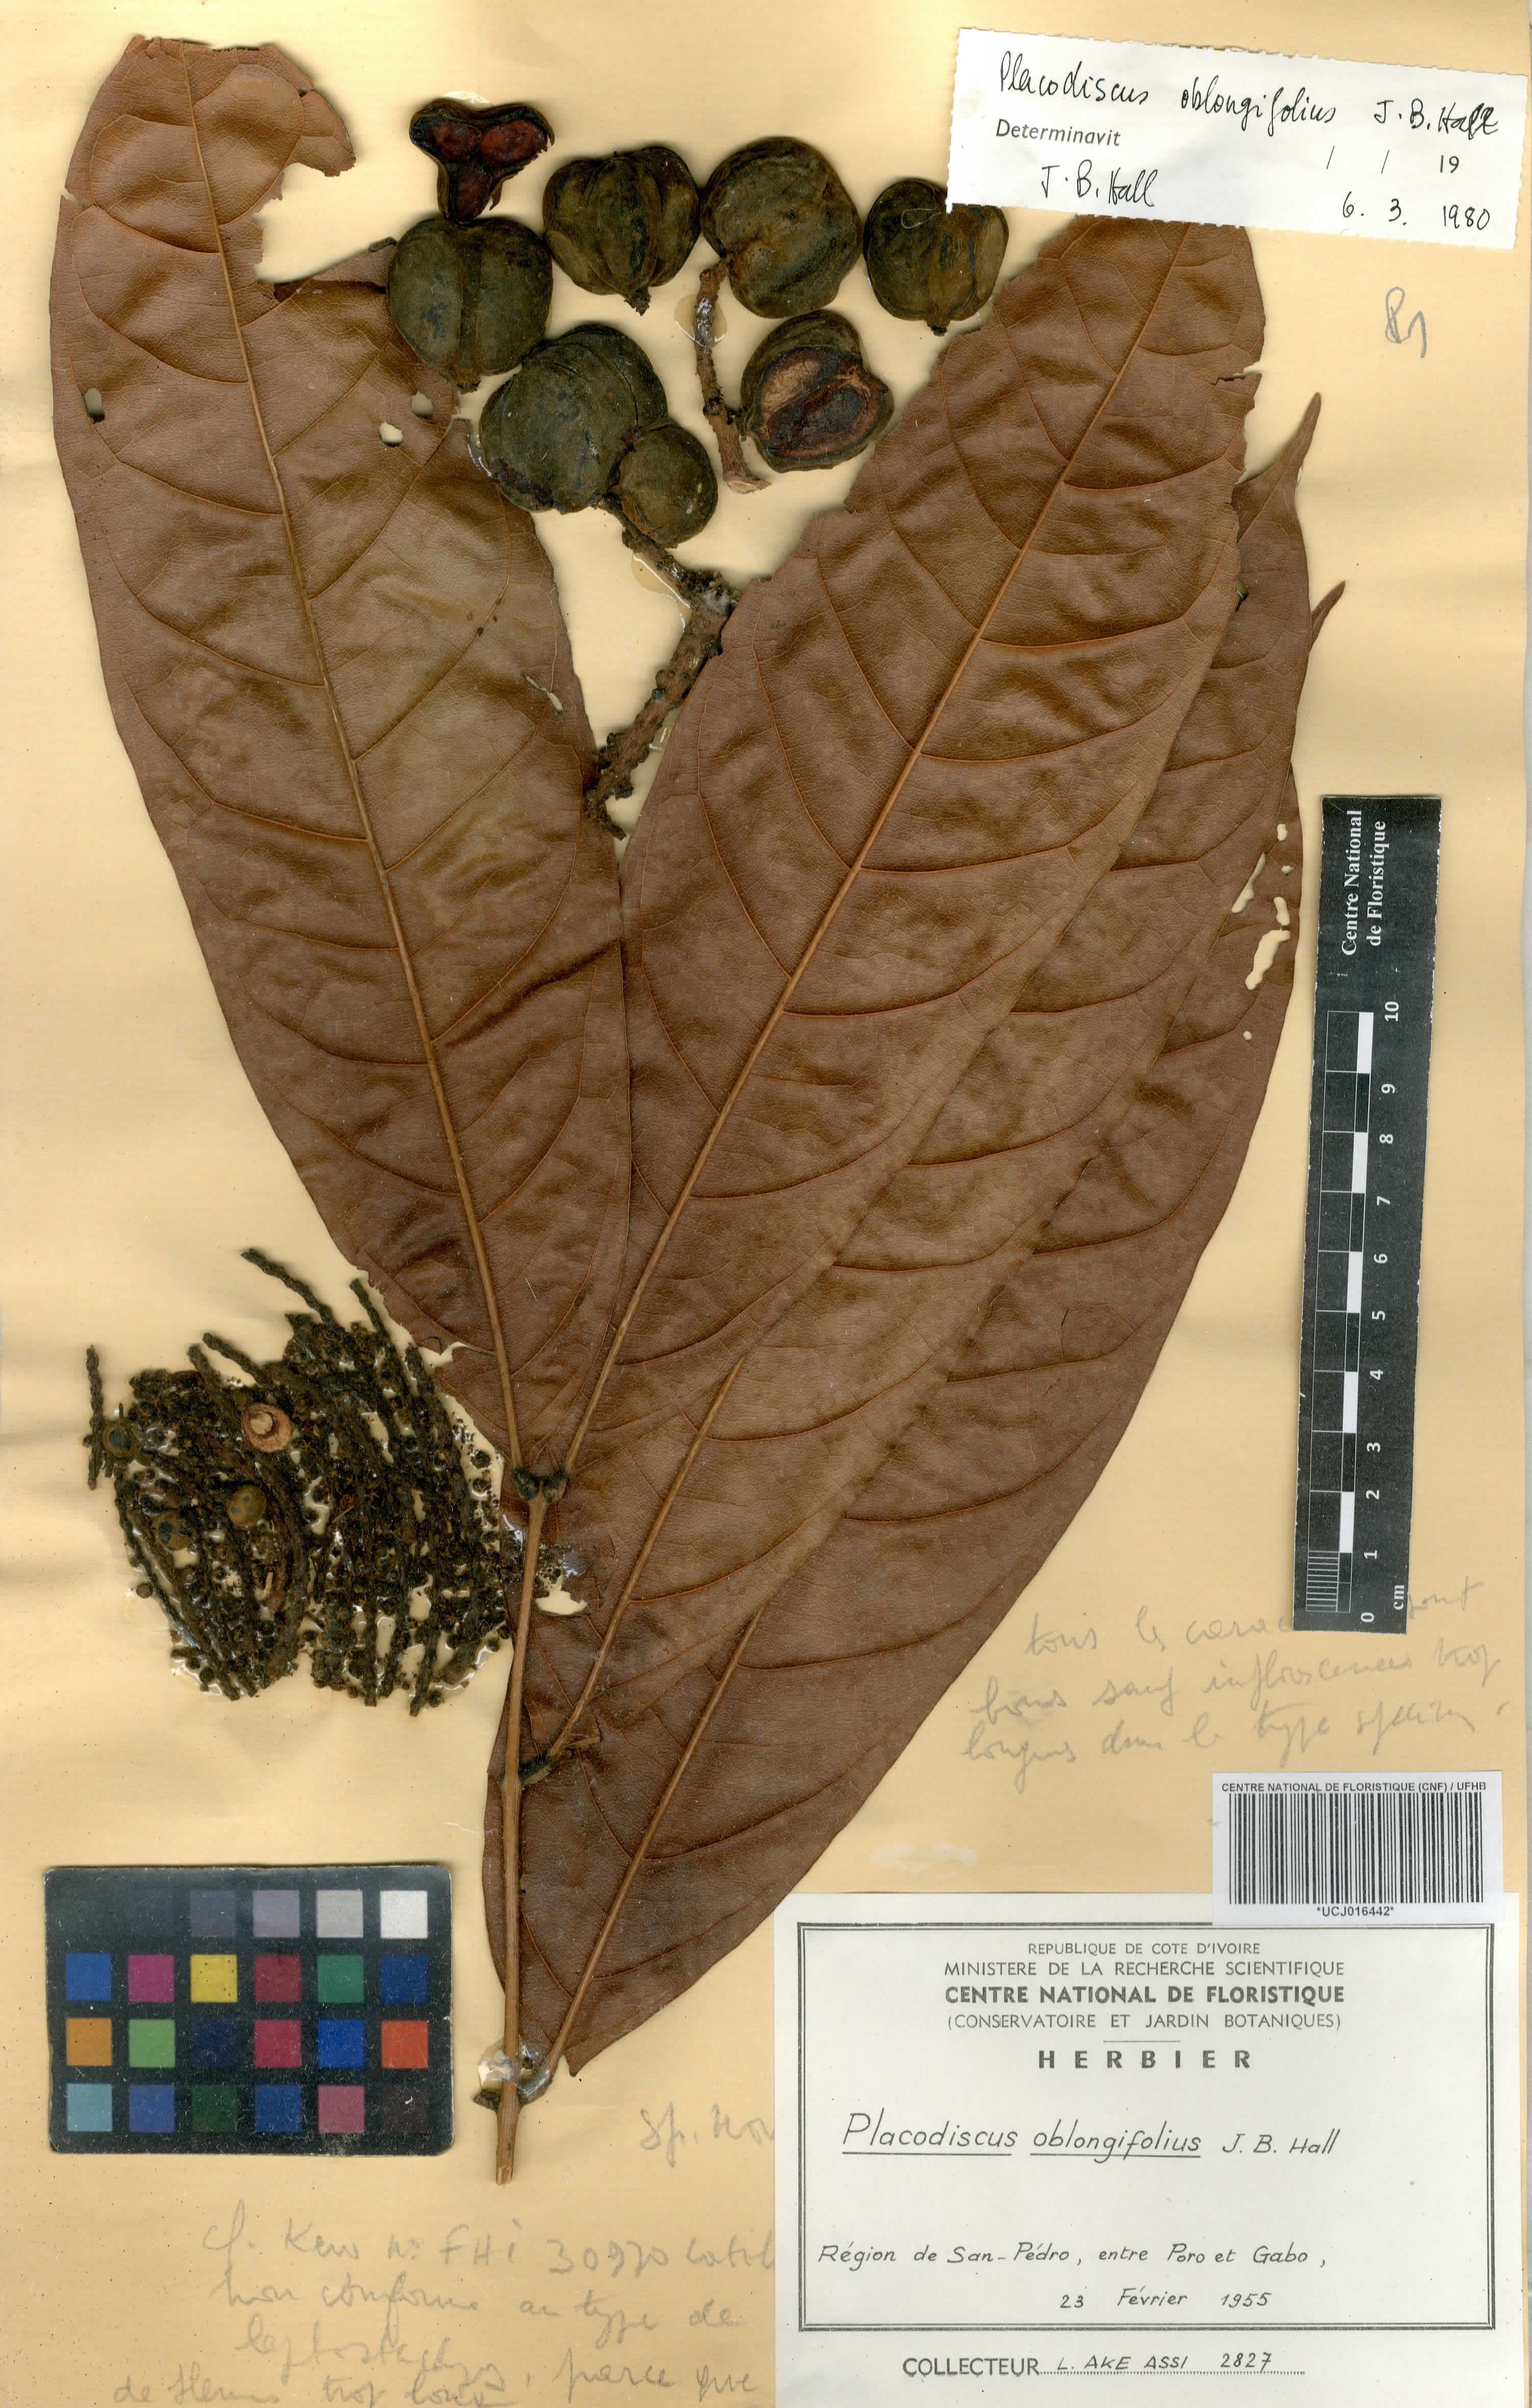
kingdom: Plantae
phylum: Tracheophyta
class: Magnoliopsida
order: Sapindales
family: Sapindaceae
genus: Placodiscus
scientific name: Placodiscus oblongifolius
